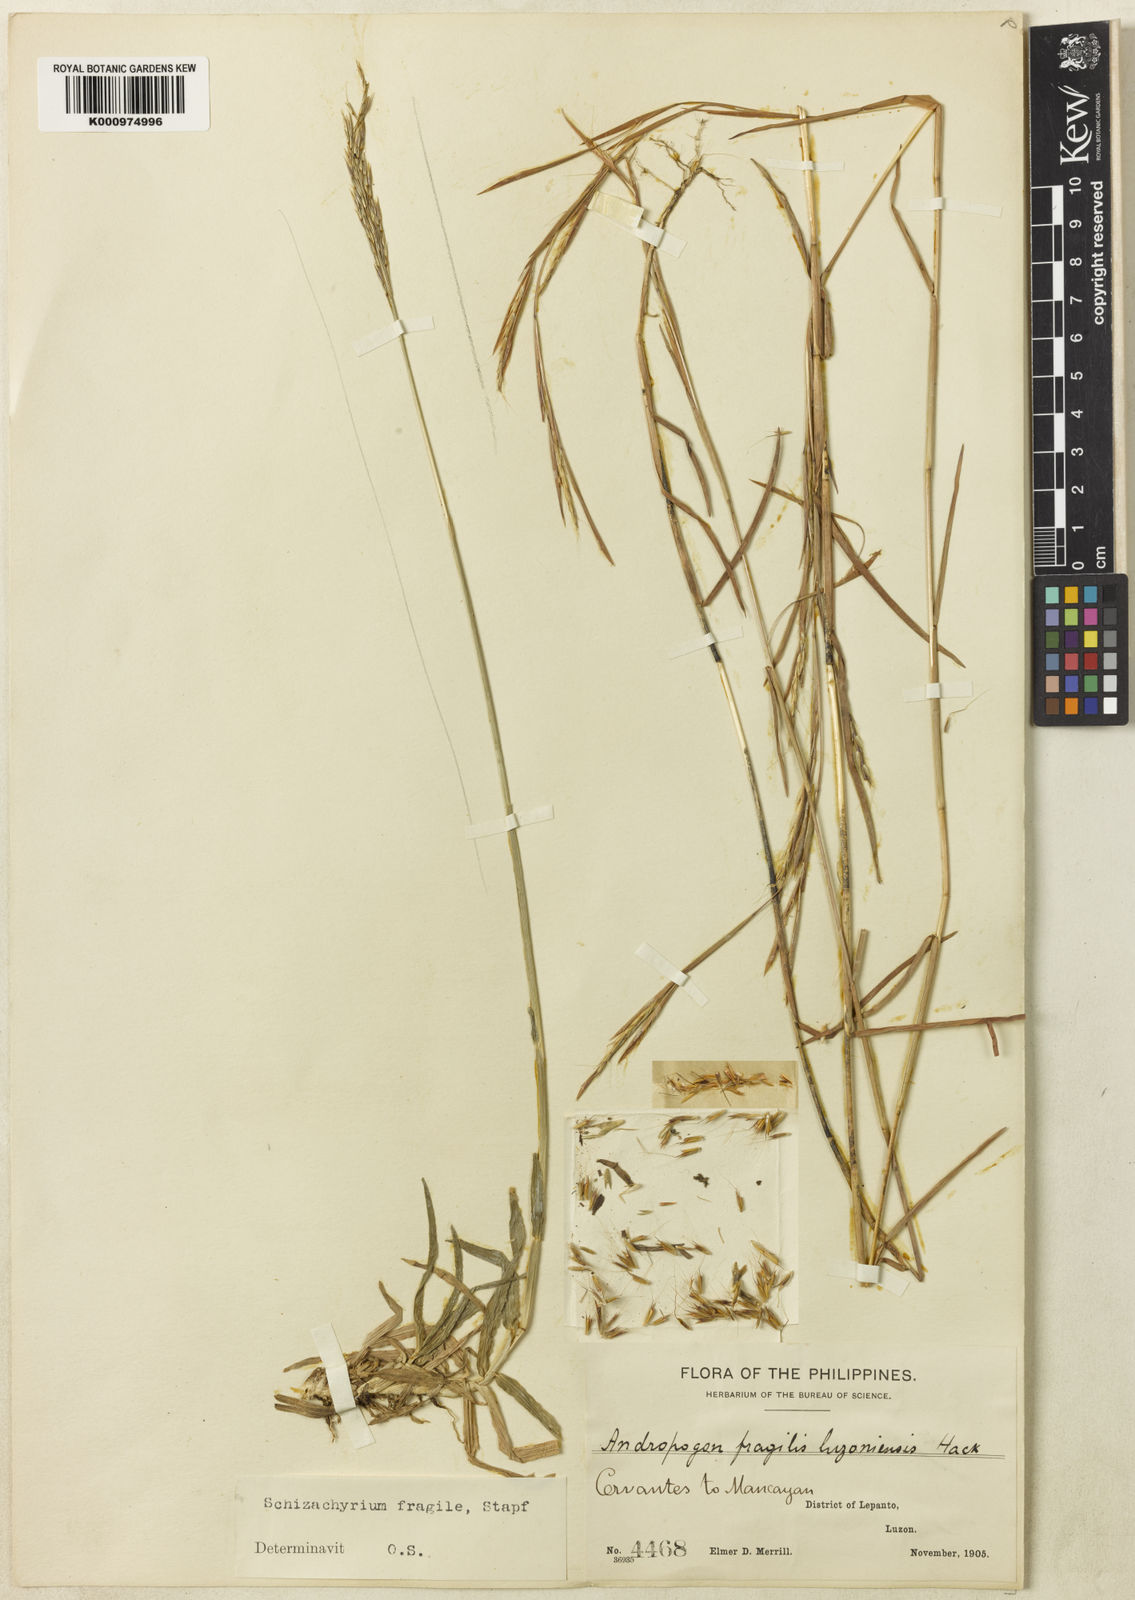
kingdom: Plantae
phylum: Tracheophyta
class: Liliopsida
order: Poales
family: Poaceae
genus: Schizachyrium
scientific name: Schizachyrium pseudeulalia
